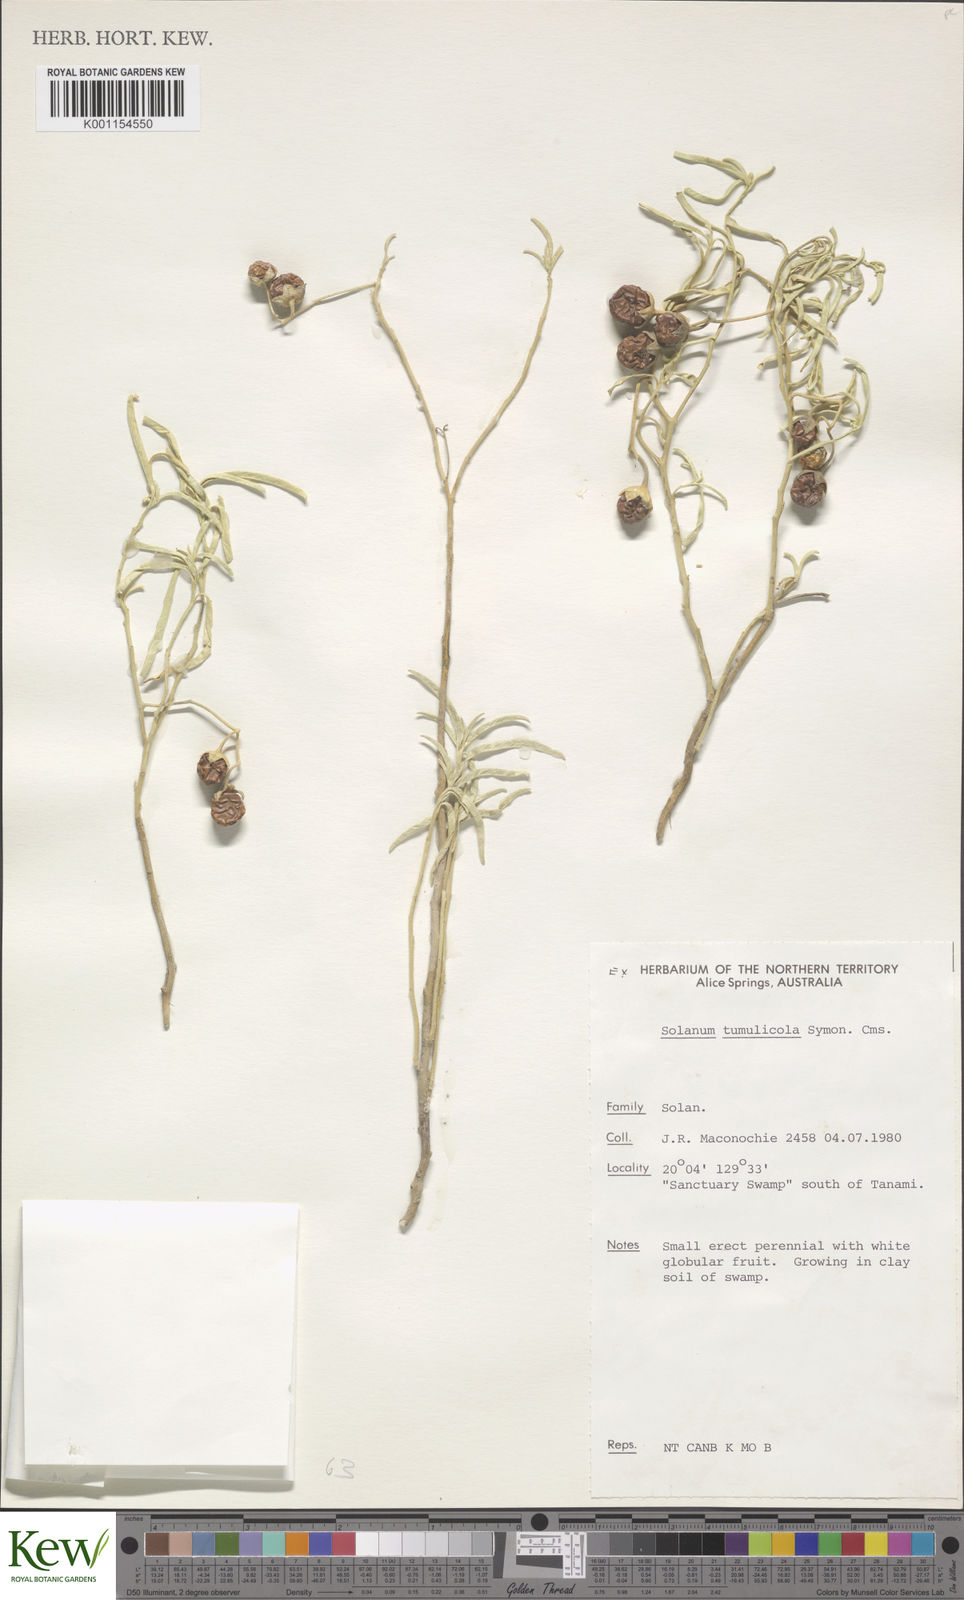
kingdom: Plantae
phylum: Tracheophyta
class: Magnoliopsida
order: Solanales
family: Solanaceae
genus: Solanum
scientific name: Solanum tumulicola
